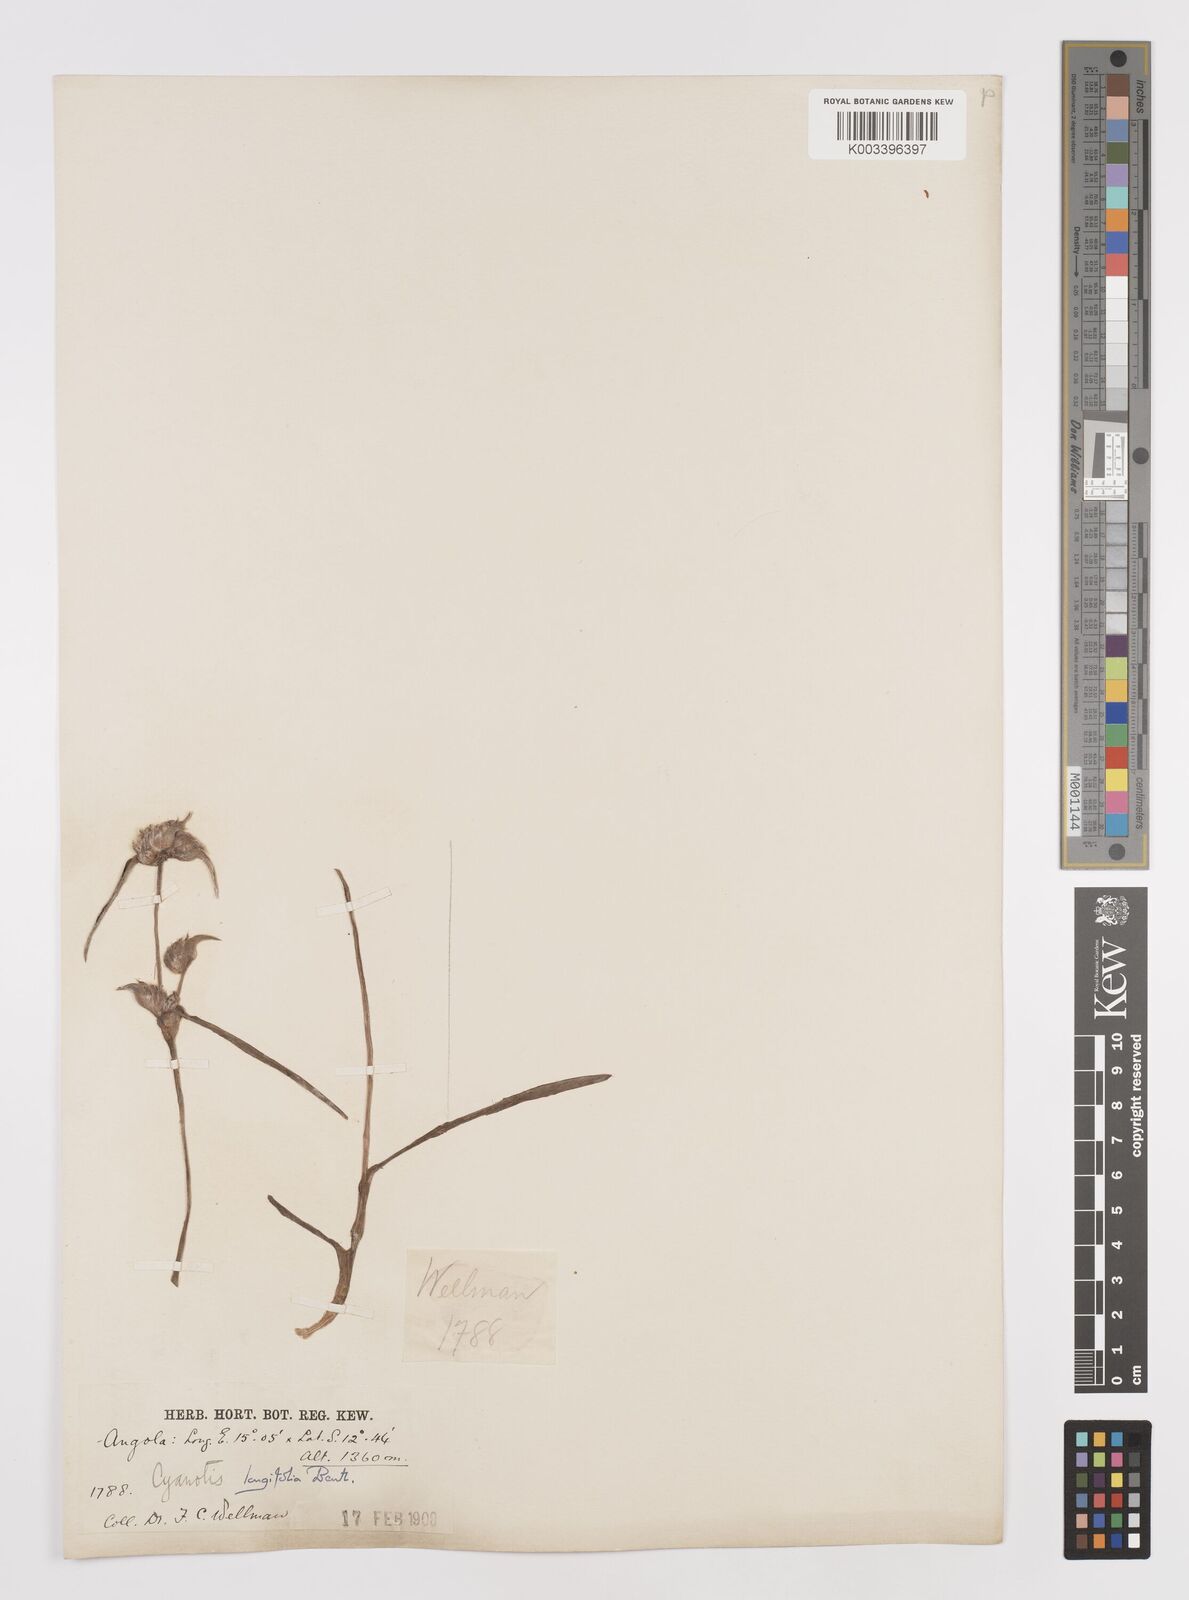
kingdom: Plantae
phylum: Tracheophyta
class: Liliopsida
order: Commelinales
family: Commelinaceae
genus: Cyanotis
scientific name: Cyanotis longifolia
